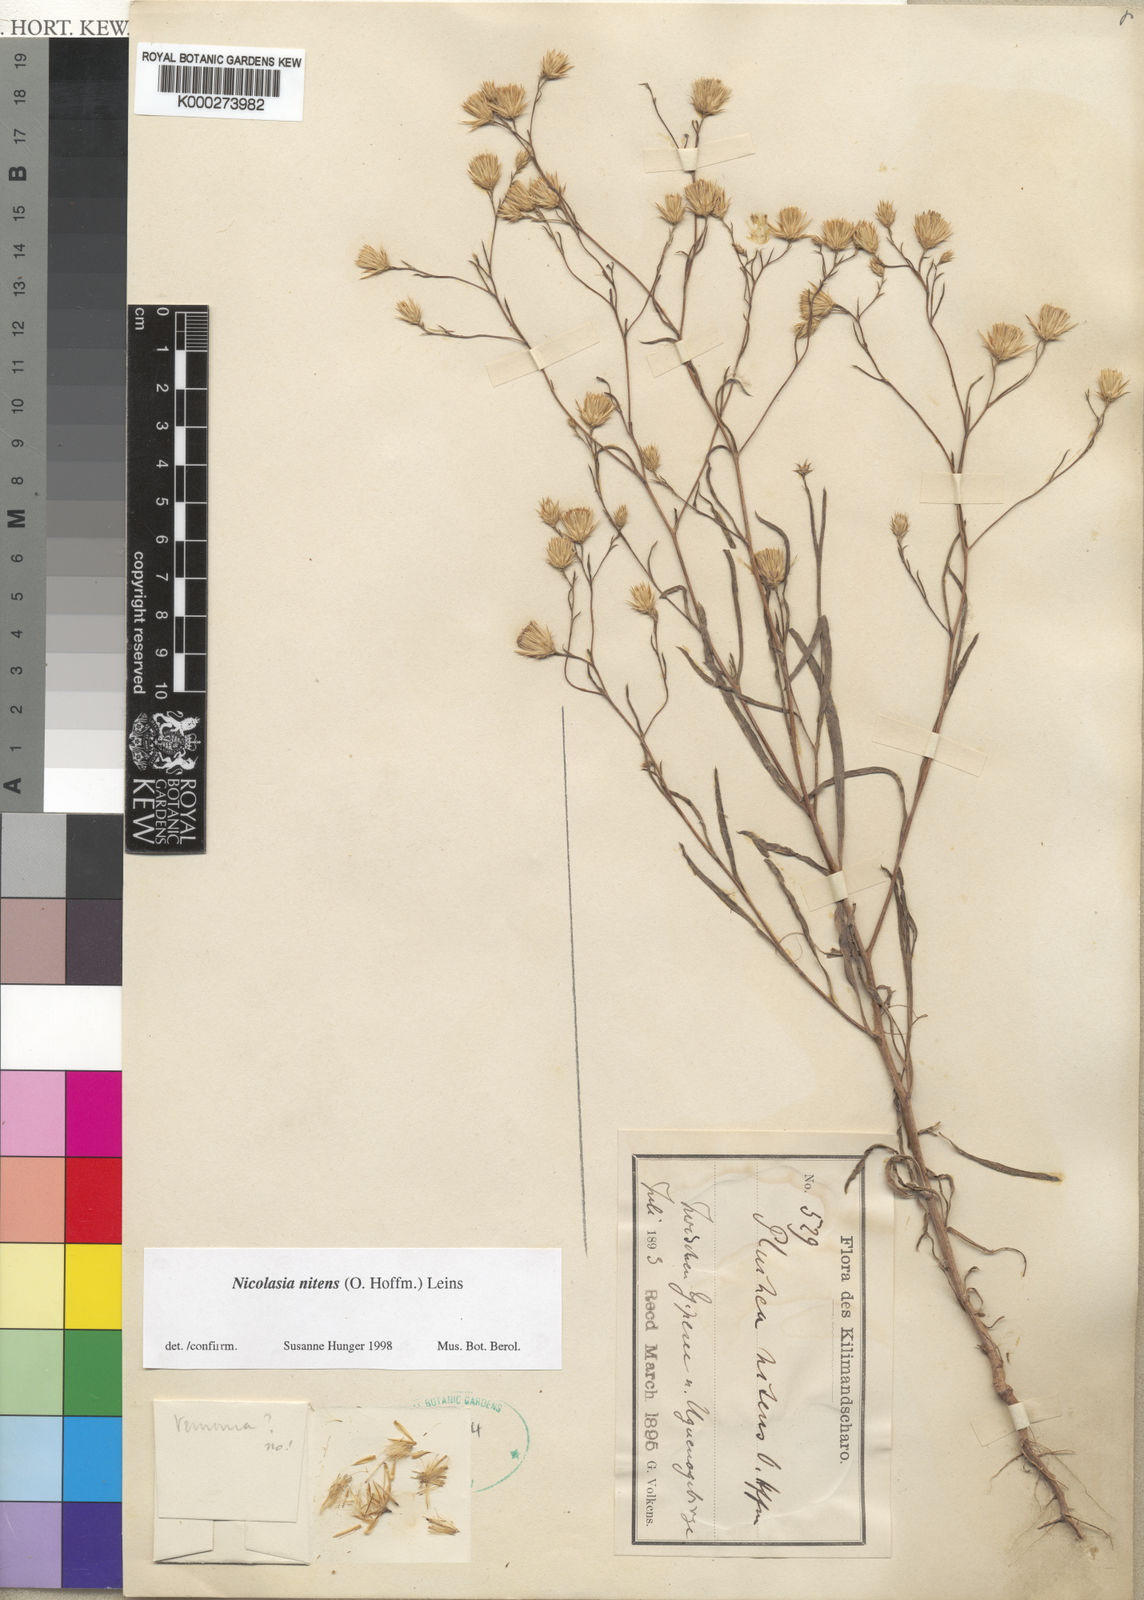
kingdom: Plantae
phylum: Tracheophyta
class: Magnoliopsida
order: Asterales
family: Asteraceae
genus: Nicolasia
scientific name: Nicolasia nitens
